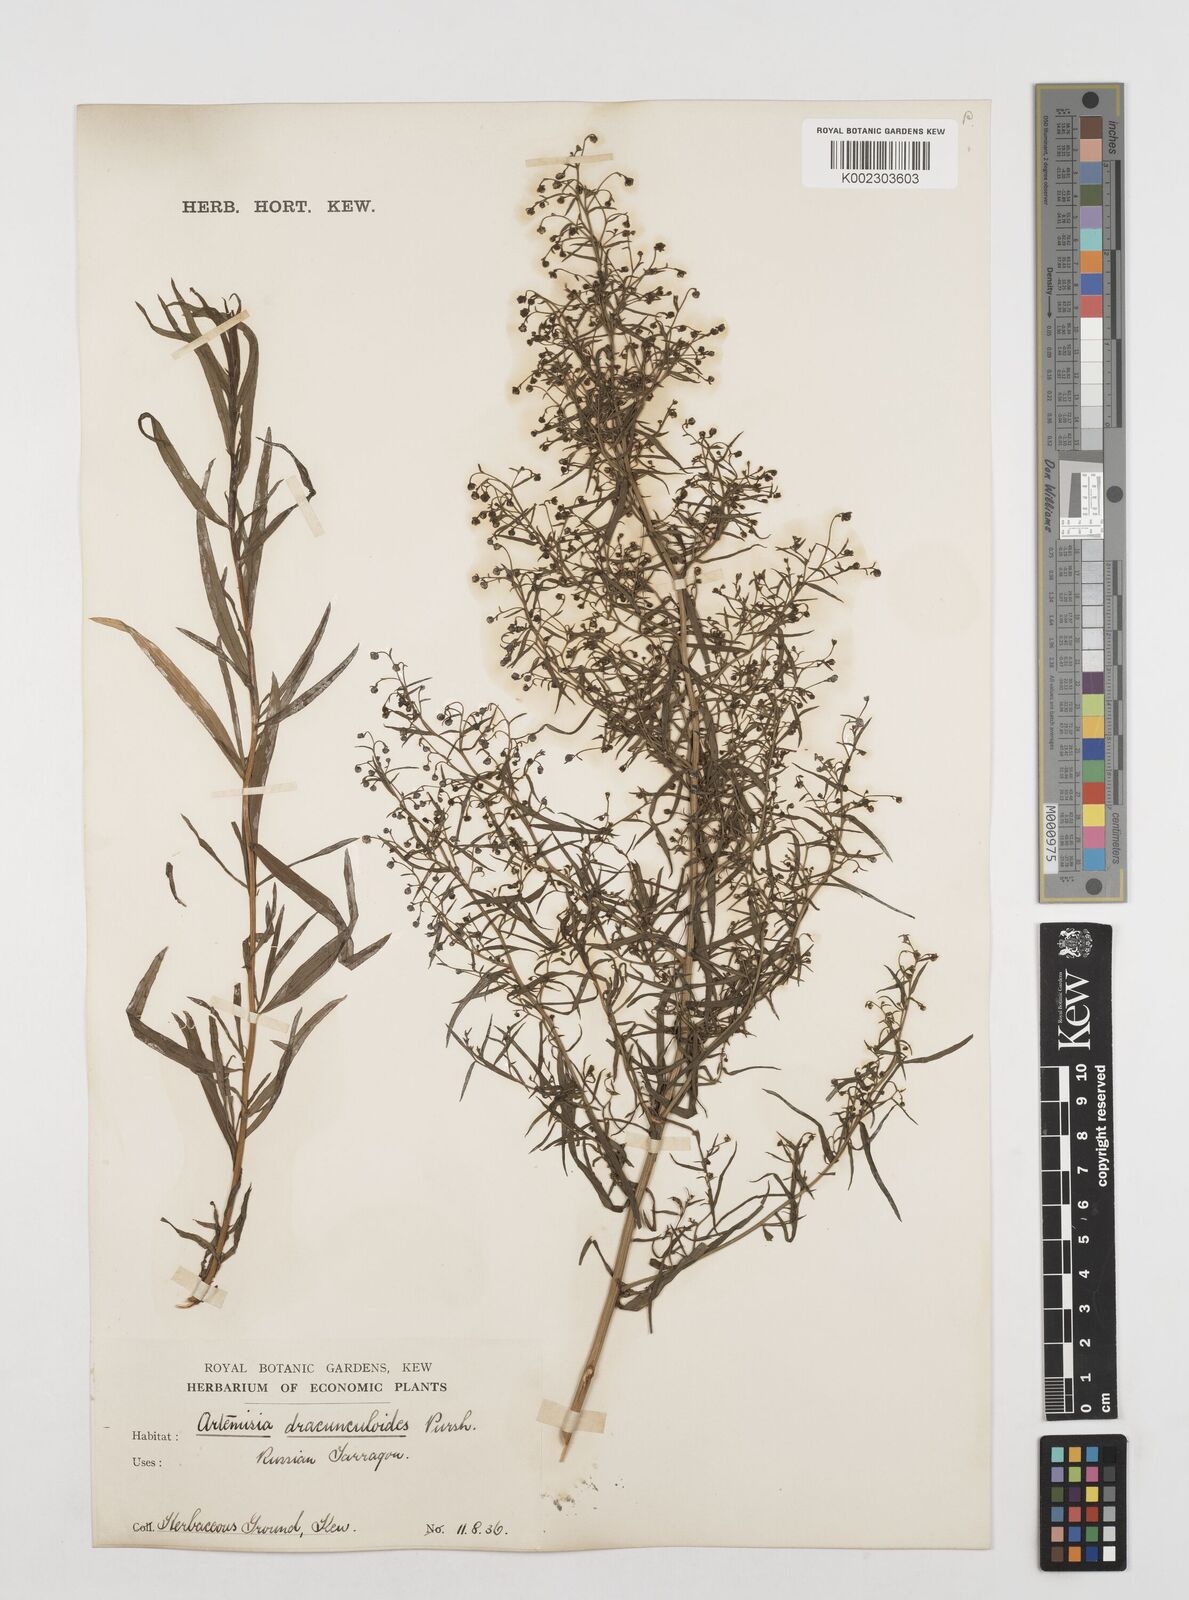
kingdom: Plantae
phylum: Tracheophyta
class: Magnoliopsida
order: Asterales
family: Asteraceae
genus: Artemisia
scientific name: Artemisia dracunculus
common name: Tarragon
